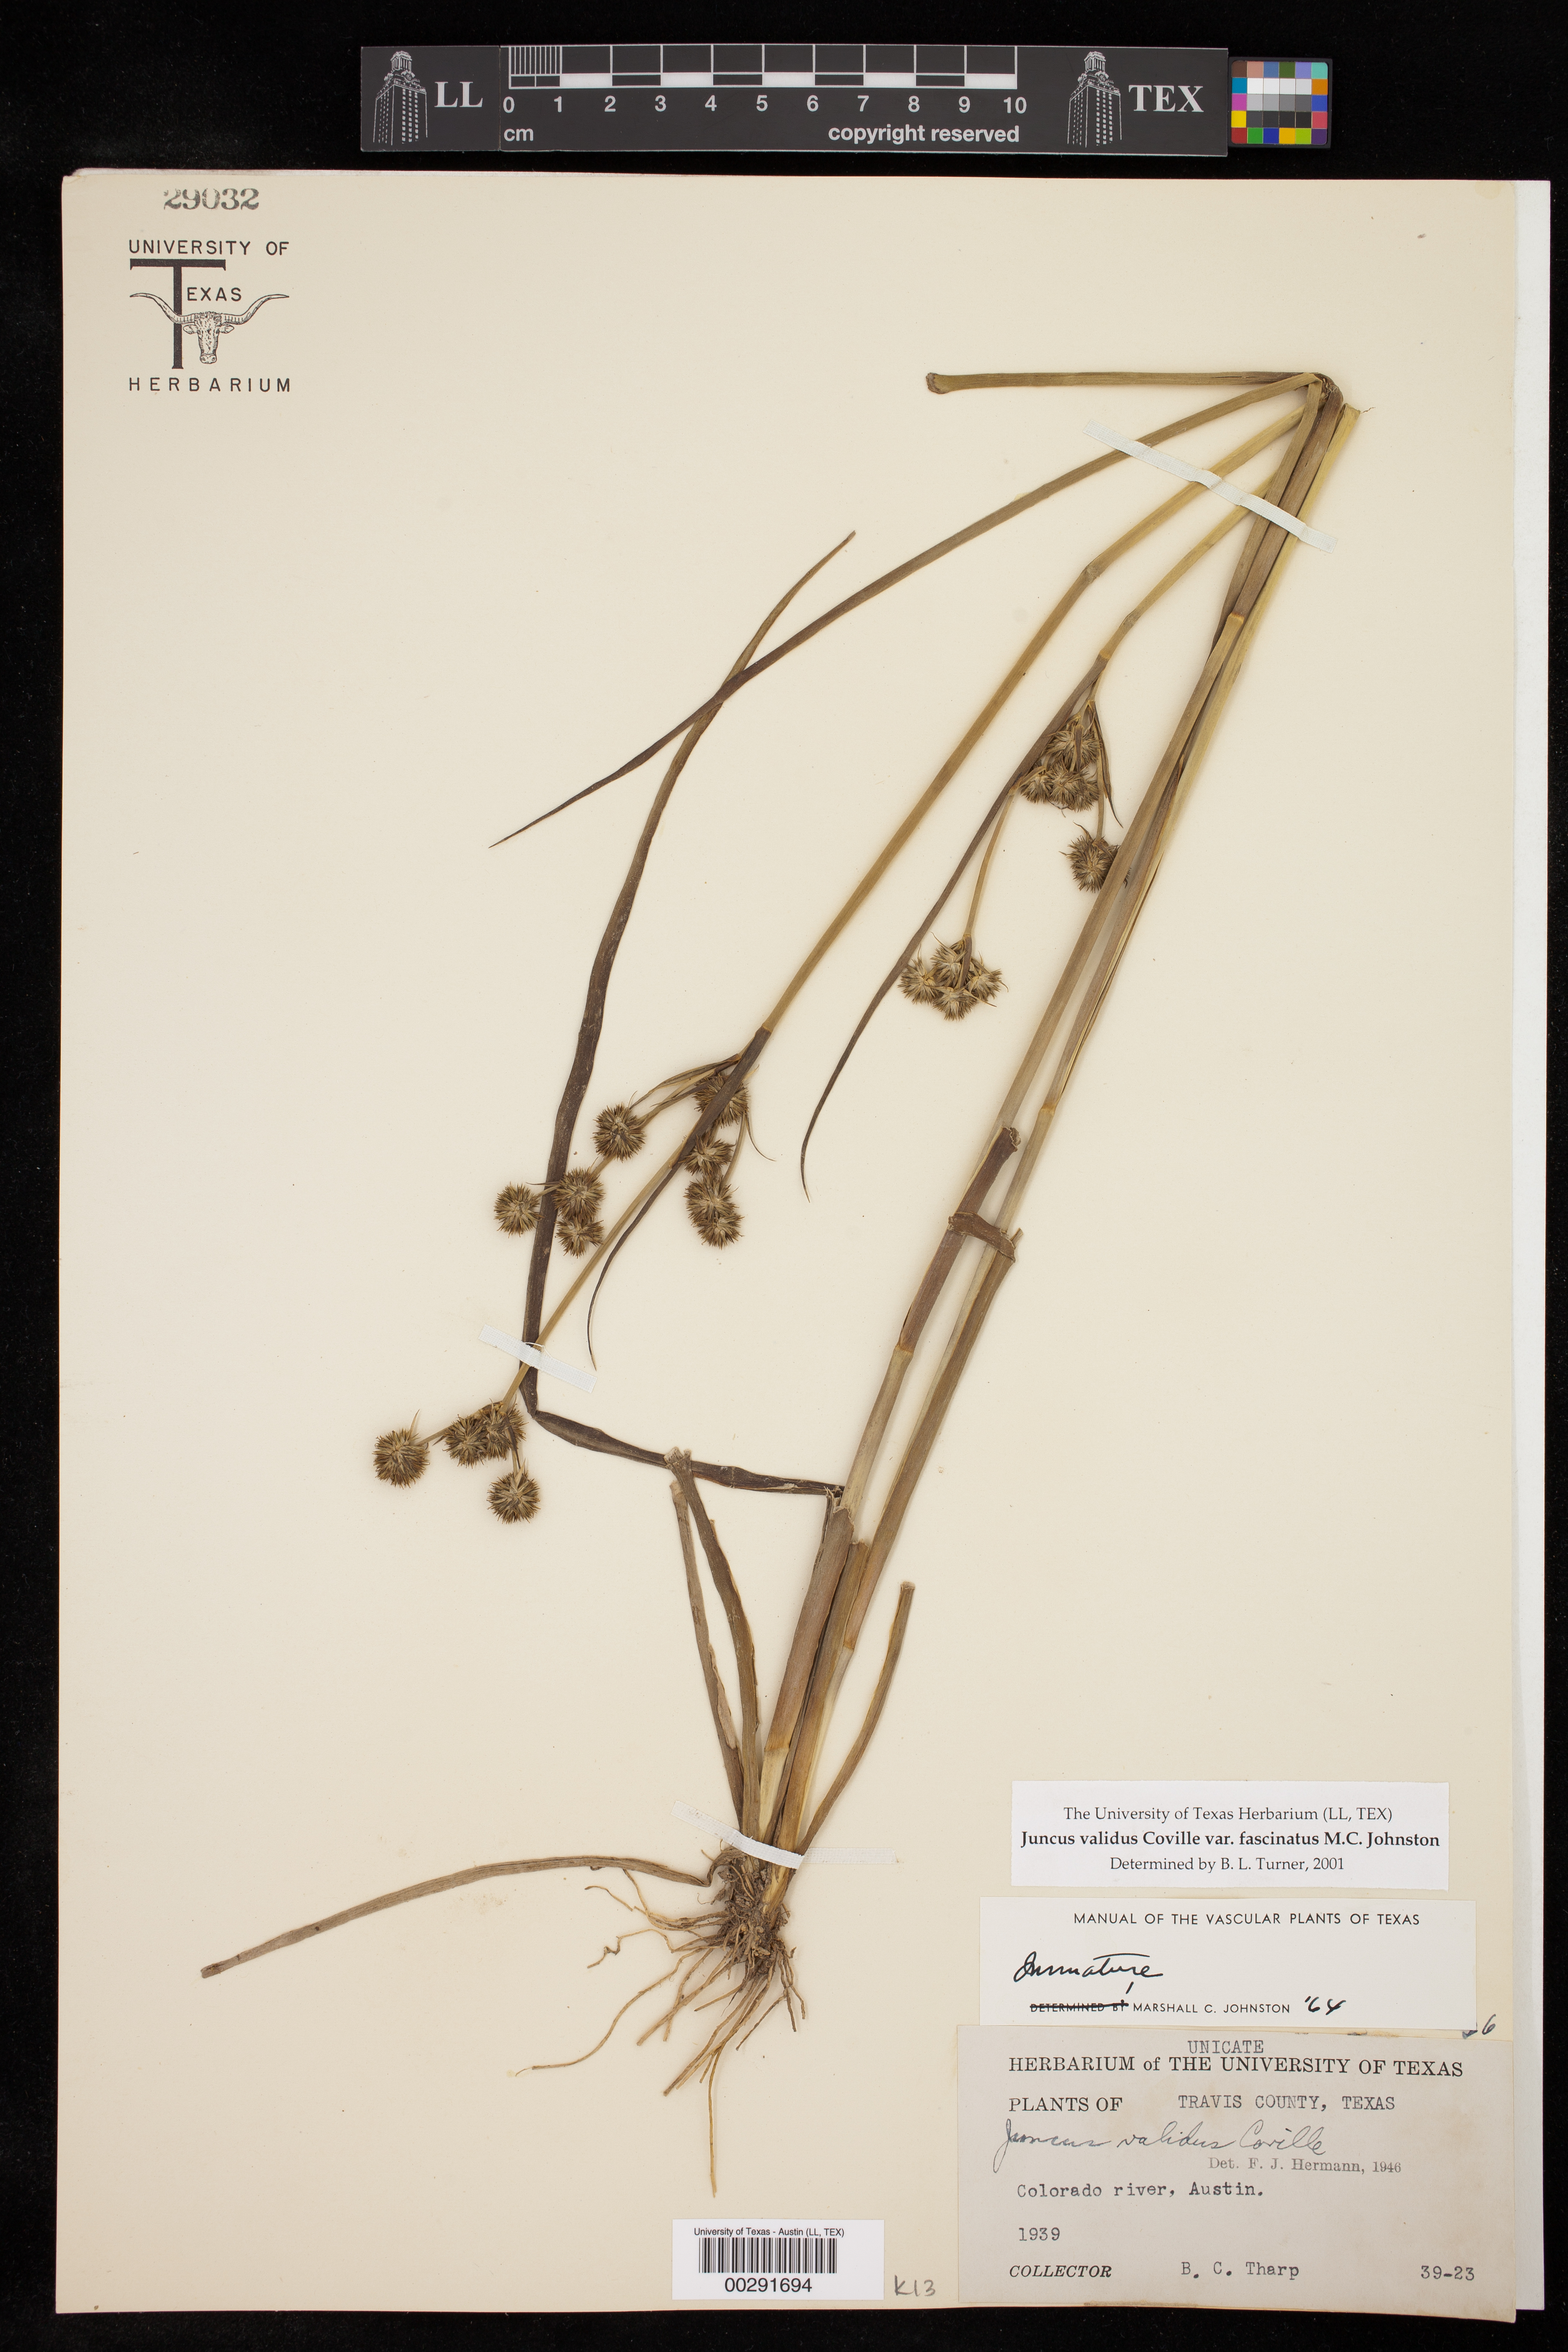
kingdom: Plantae
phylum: Tracheophyta
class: Liliopsida
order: Poales
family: Juncaceae
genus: Juncus
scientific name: Juncus validus
